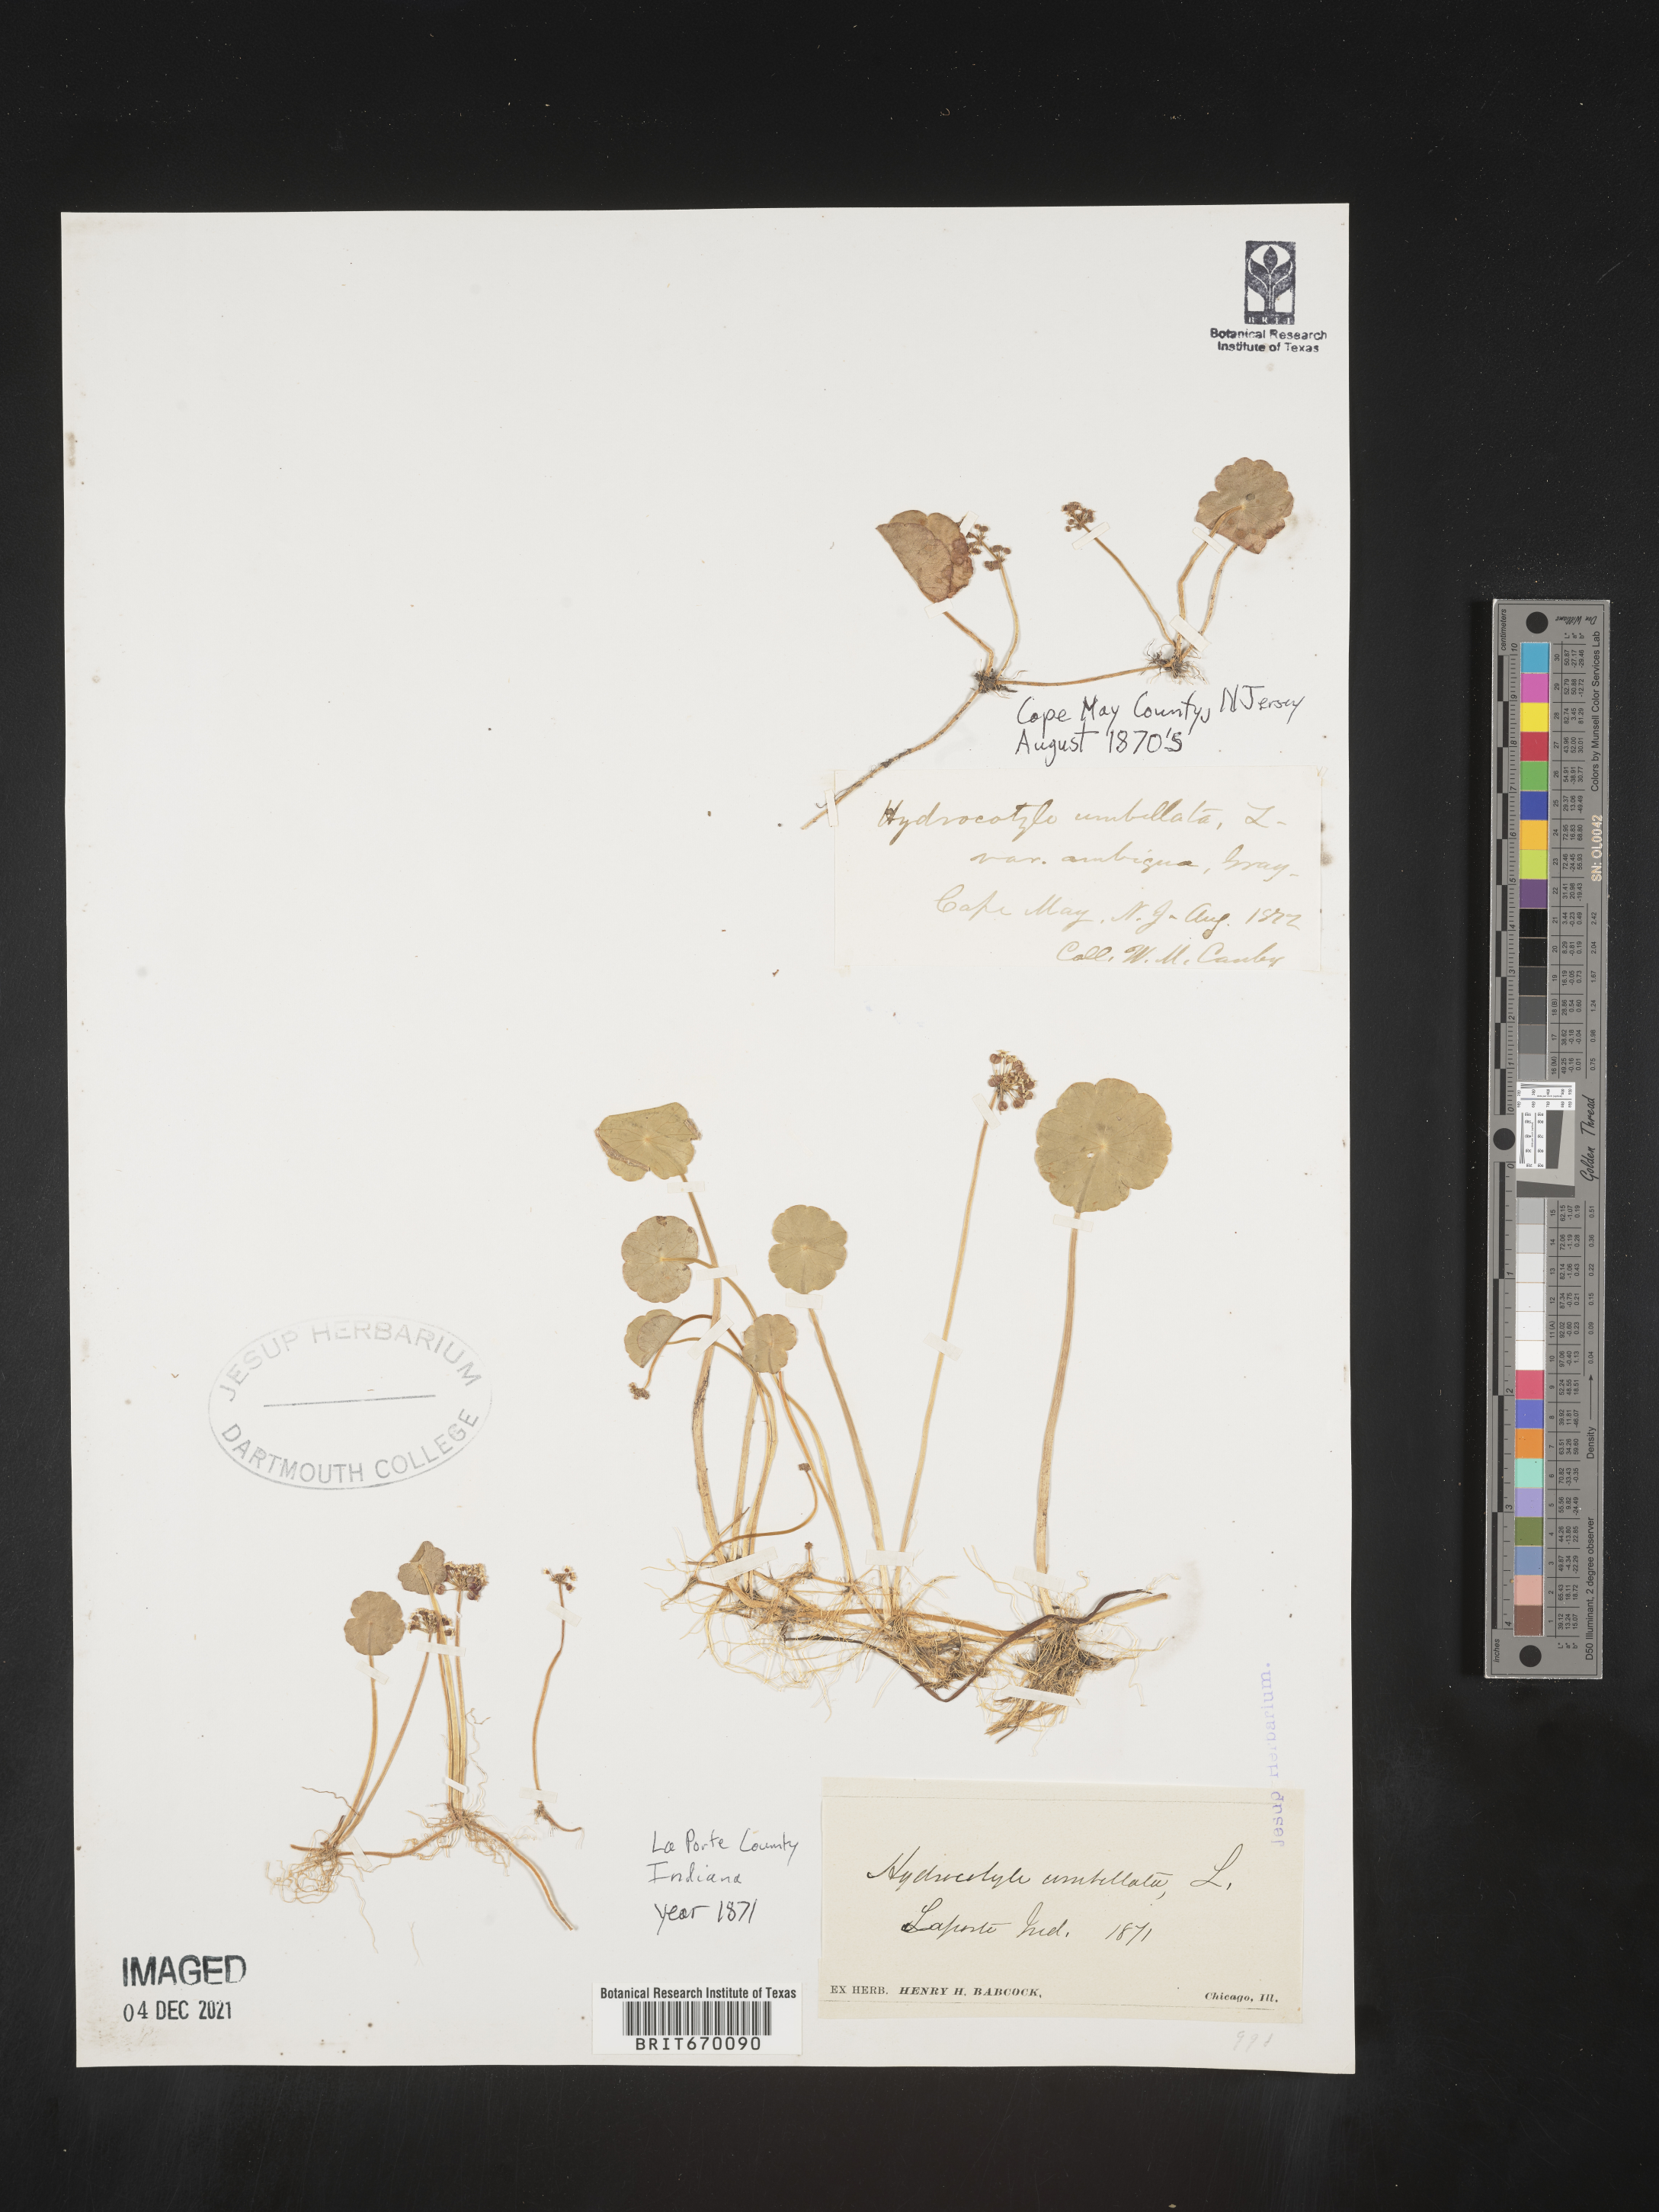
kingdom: Plantae
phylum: Tracheophyta
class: Magnoliopsida
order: Apiales
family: Araliaceae
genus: Hydrocotyle
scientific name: Hydrocotyle umbellata
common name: Water pennywort
